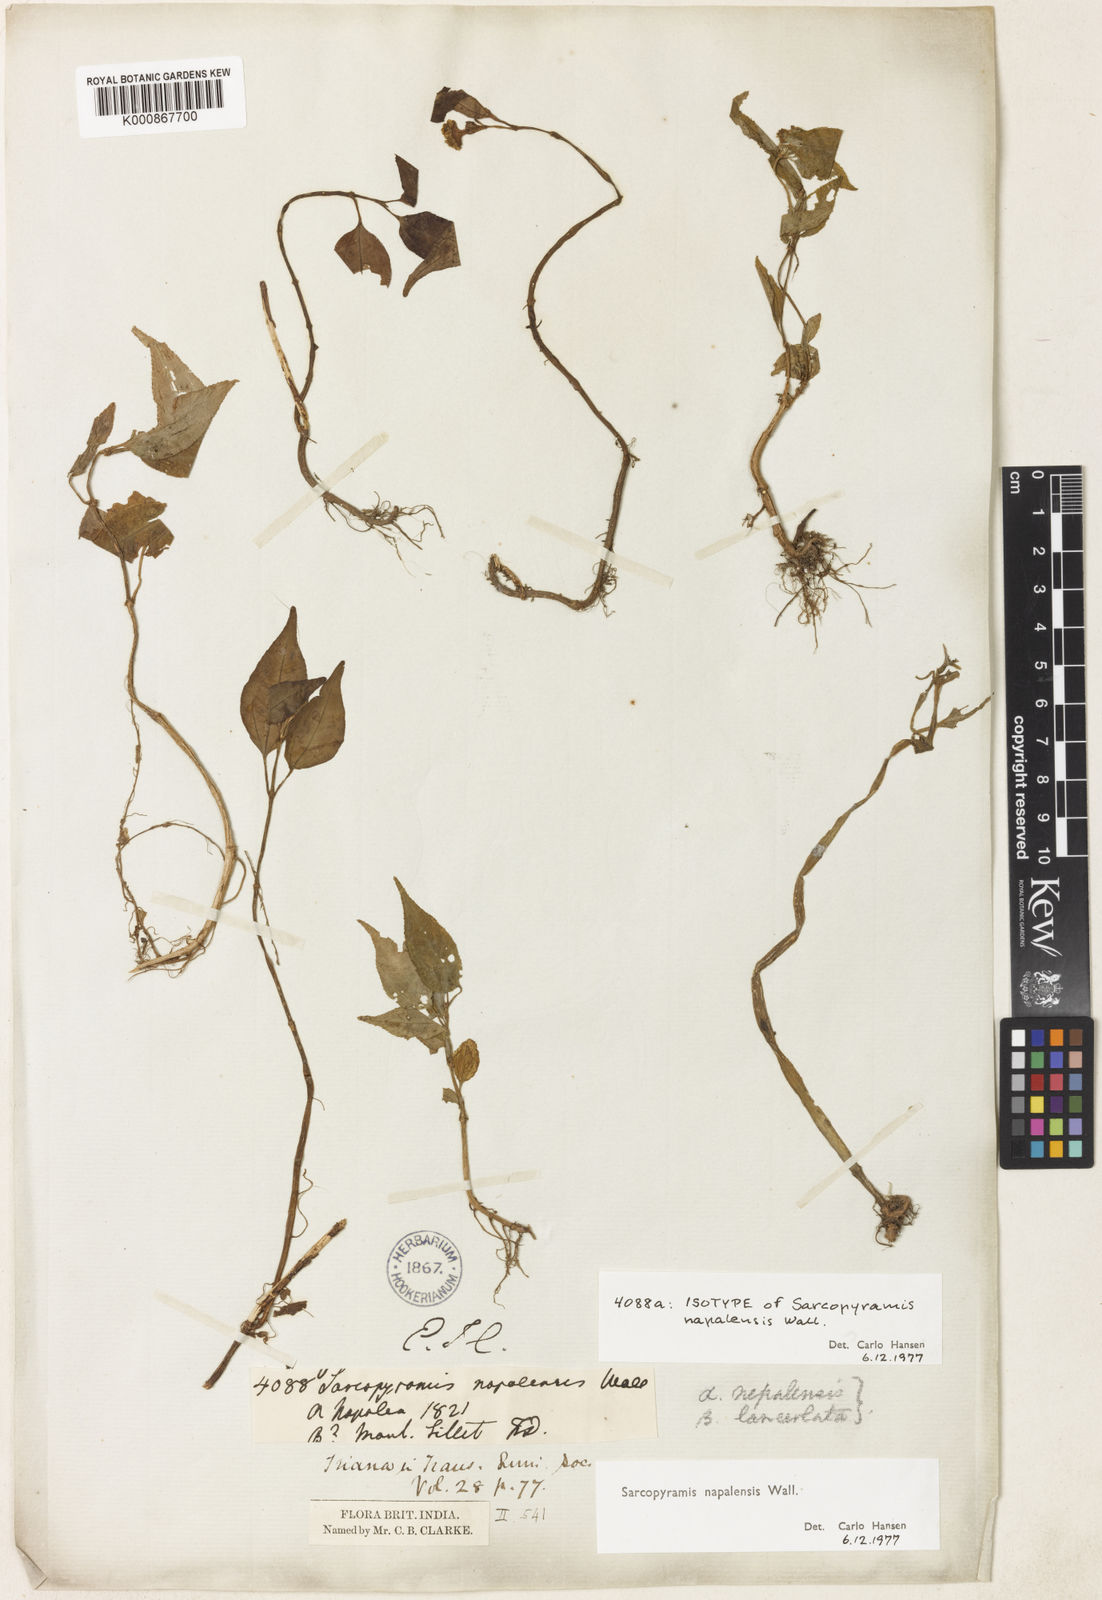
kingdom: Plantae
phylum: Tracheophyta
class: Magnoliopsida
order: Myrtales
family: Melastomataceae
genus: Sarcopyramis
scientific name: Sarcopyramis napalensis
